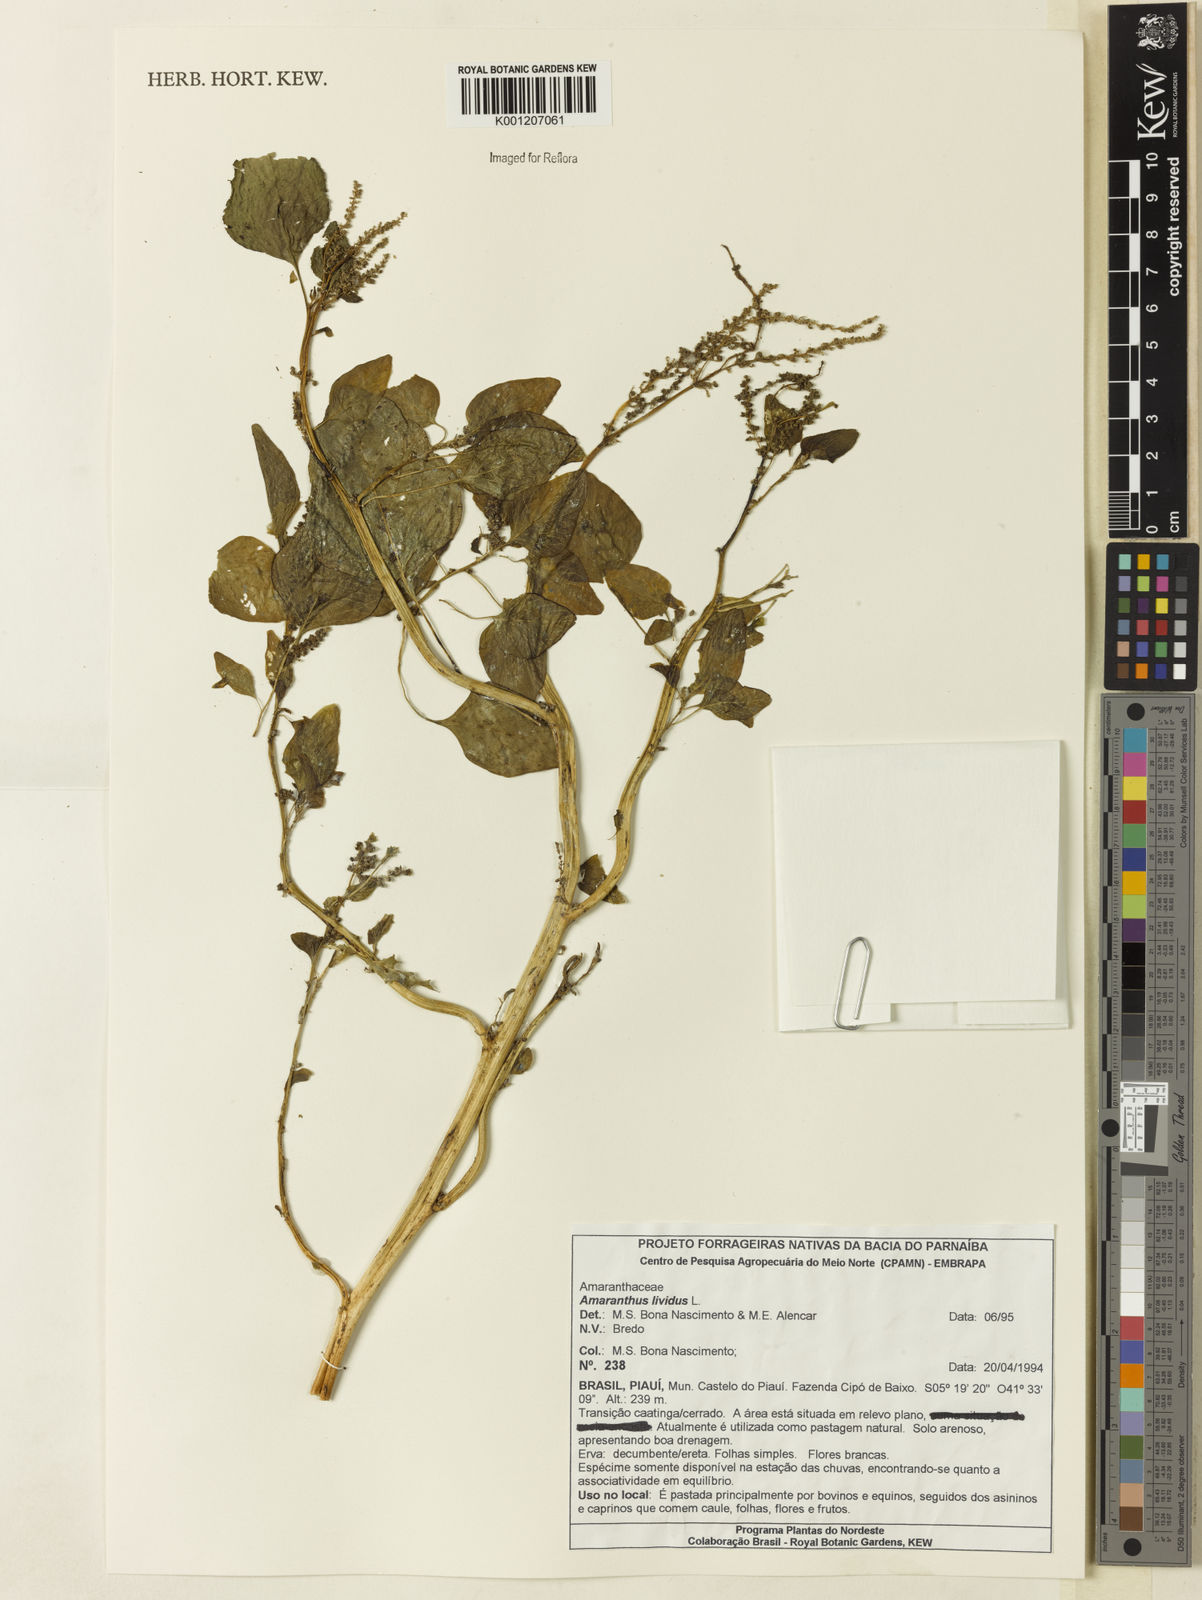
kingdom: Plantae
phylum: Tracheophyta
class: Magnoliopsida
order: Caryophyllales
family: Amaranthaceae
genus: Amaranthus
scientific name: Amaranthus blitum
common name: Purple amaranth
